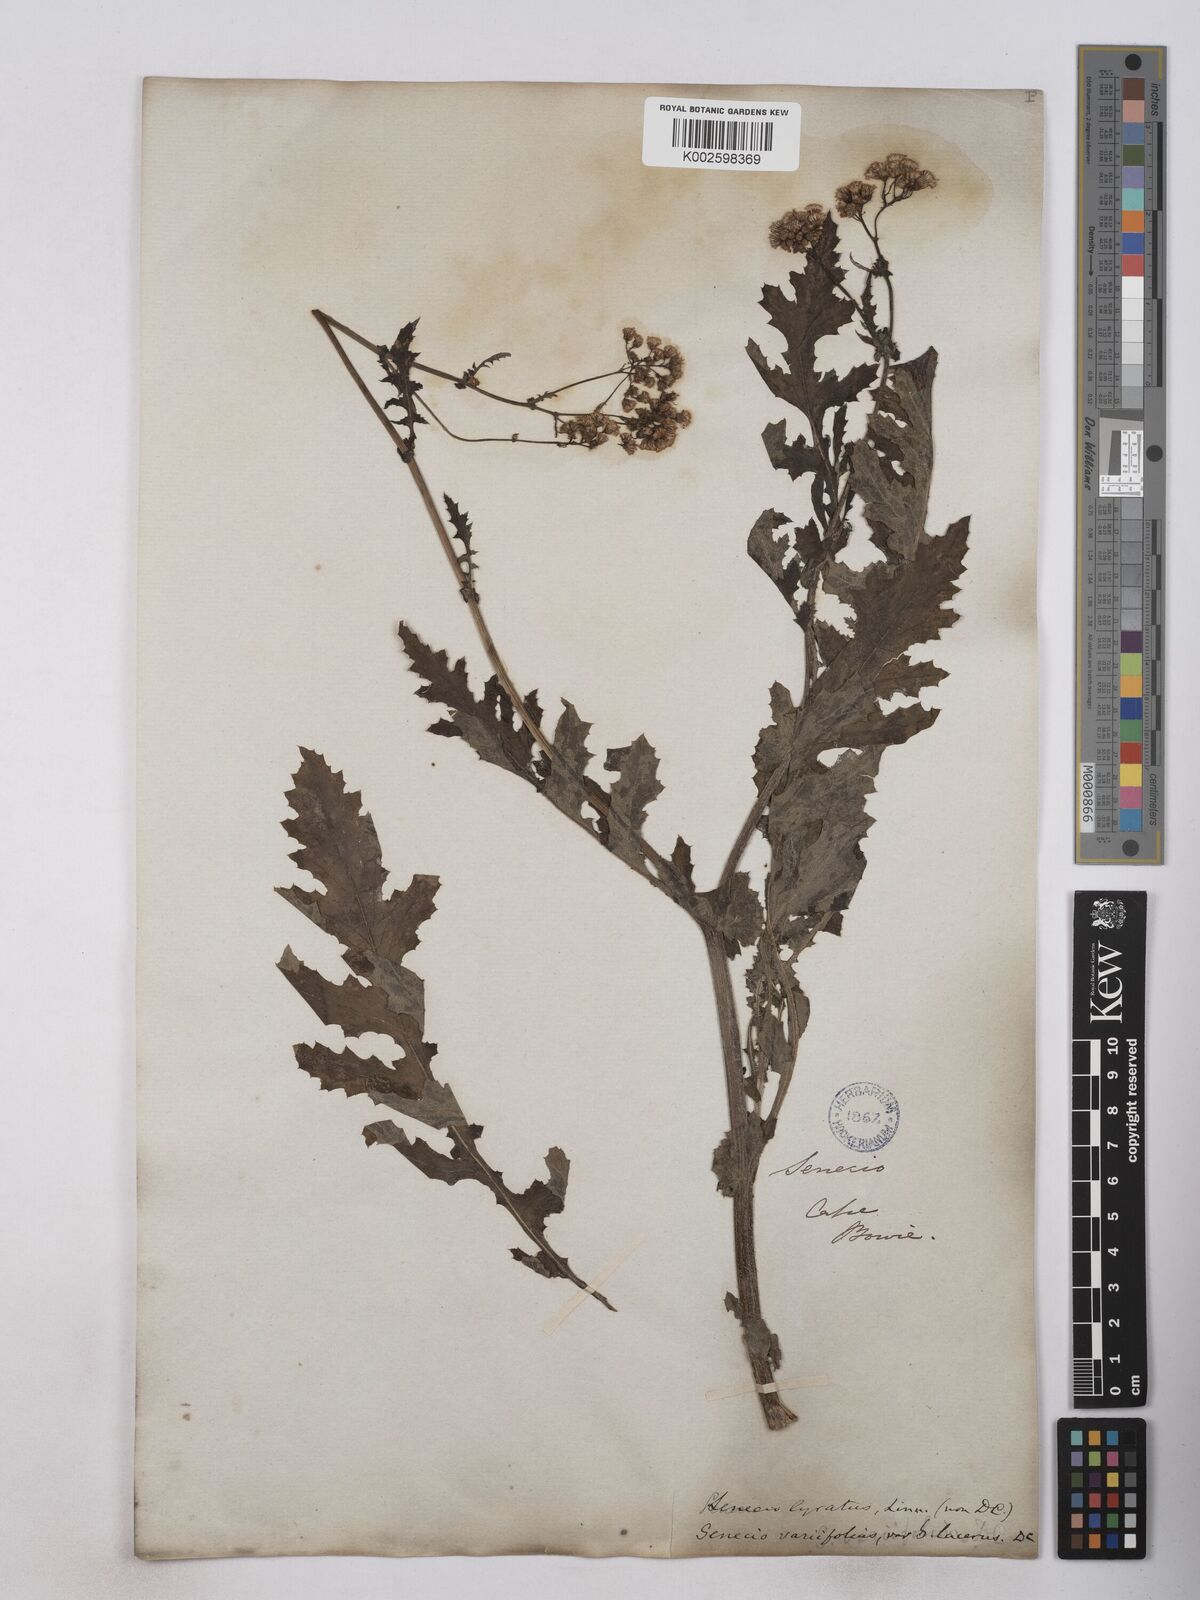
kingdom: Plantae
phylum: Tracheophyta
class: Magnoliopsida
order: Asterales
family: Asteraceae
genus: Senecio
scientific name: Senecio anapetes
